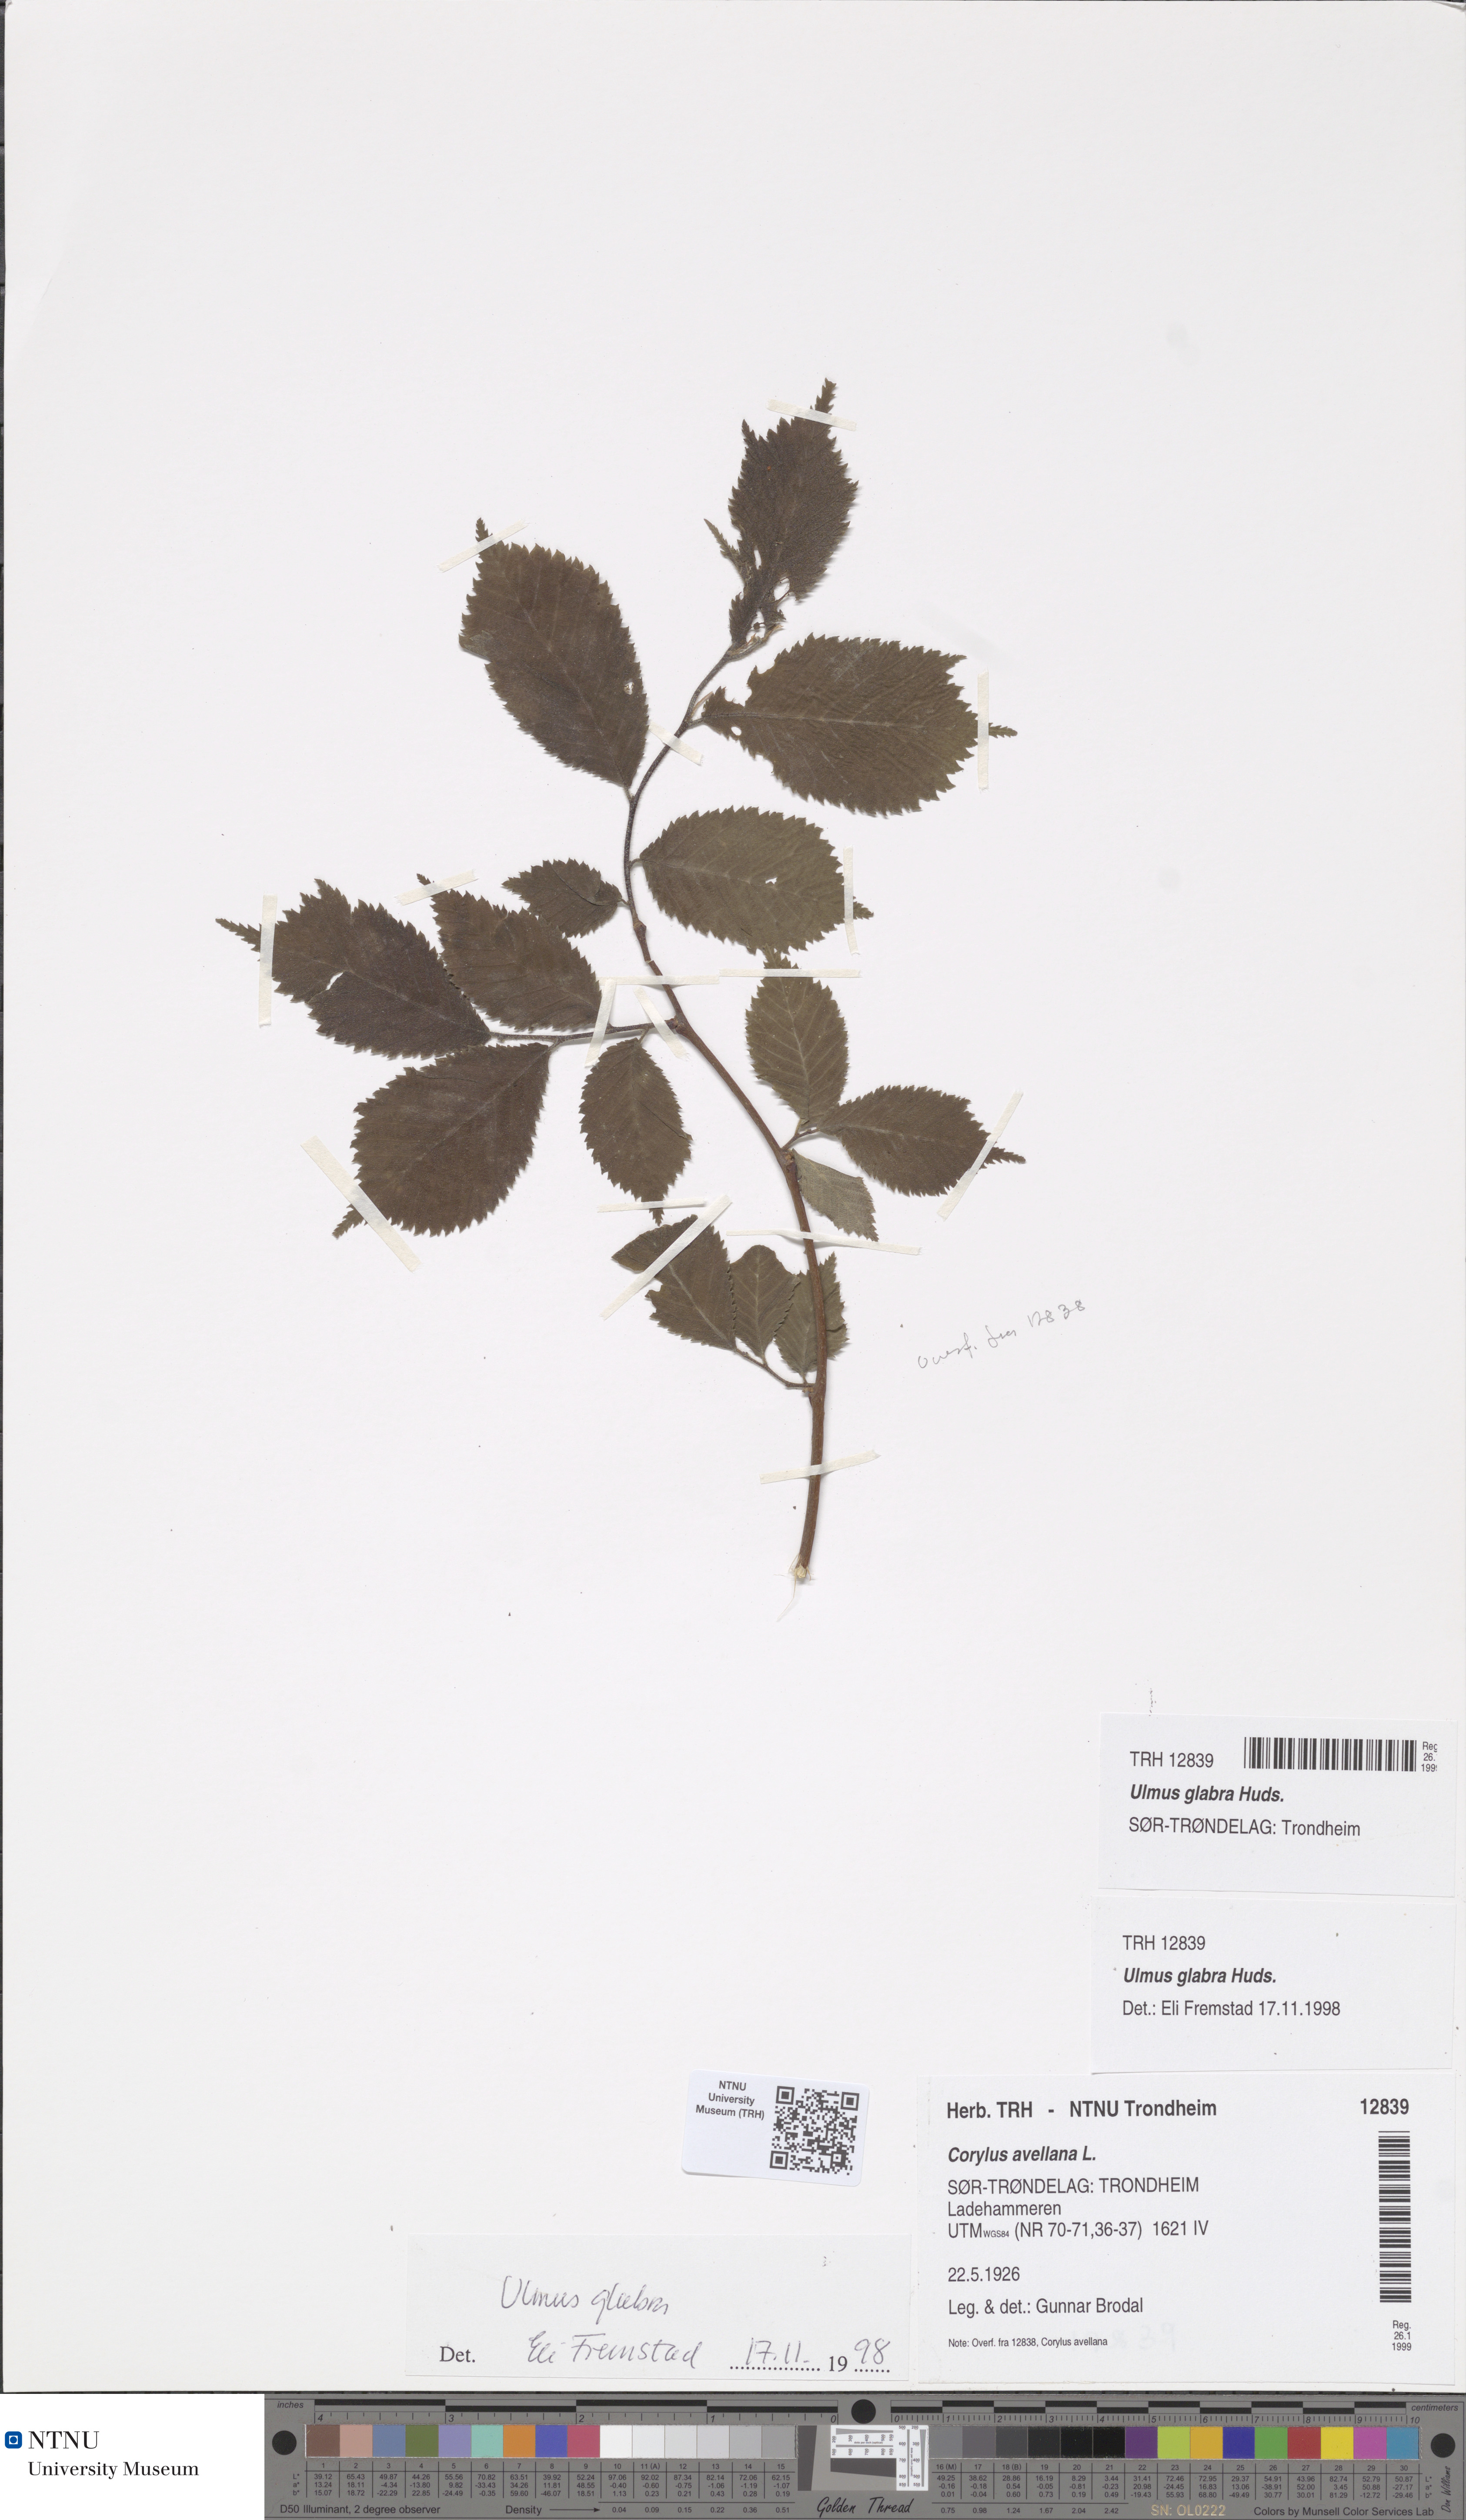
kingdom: Plantae
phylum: Tracheophyta
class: Magnoliopsida
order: Rosales
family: Ulmaceae
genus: Ulmus
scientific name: Ulmus glabra
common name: Wych elm
